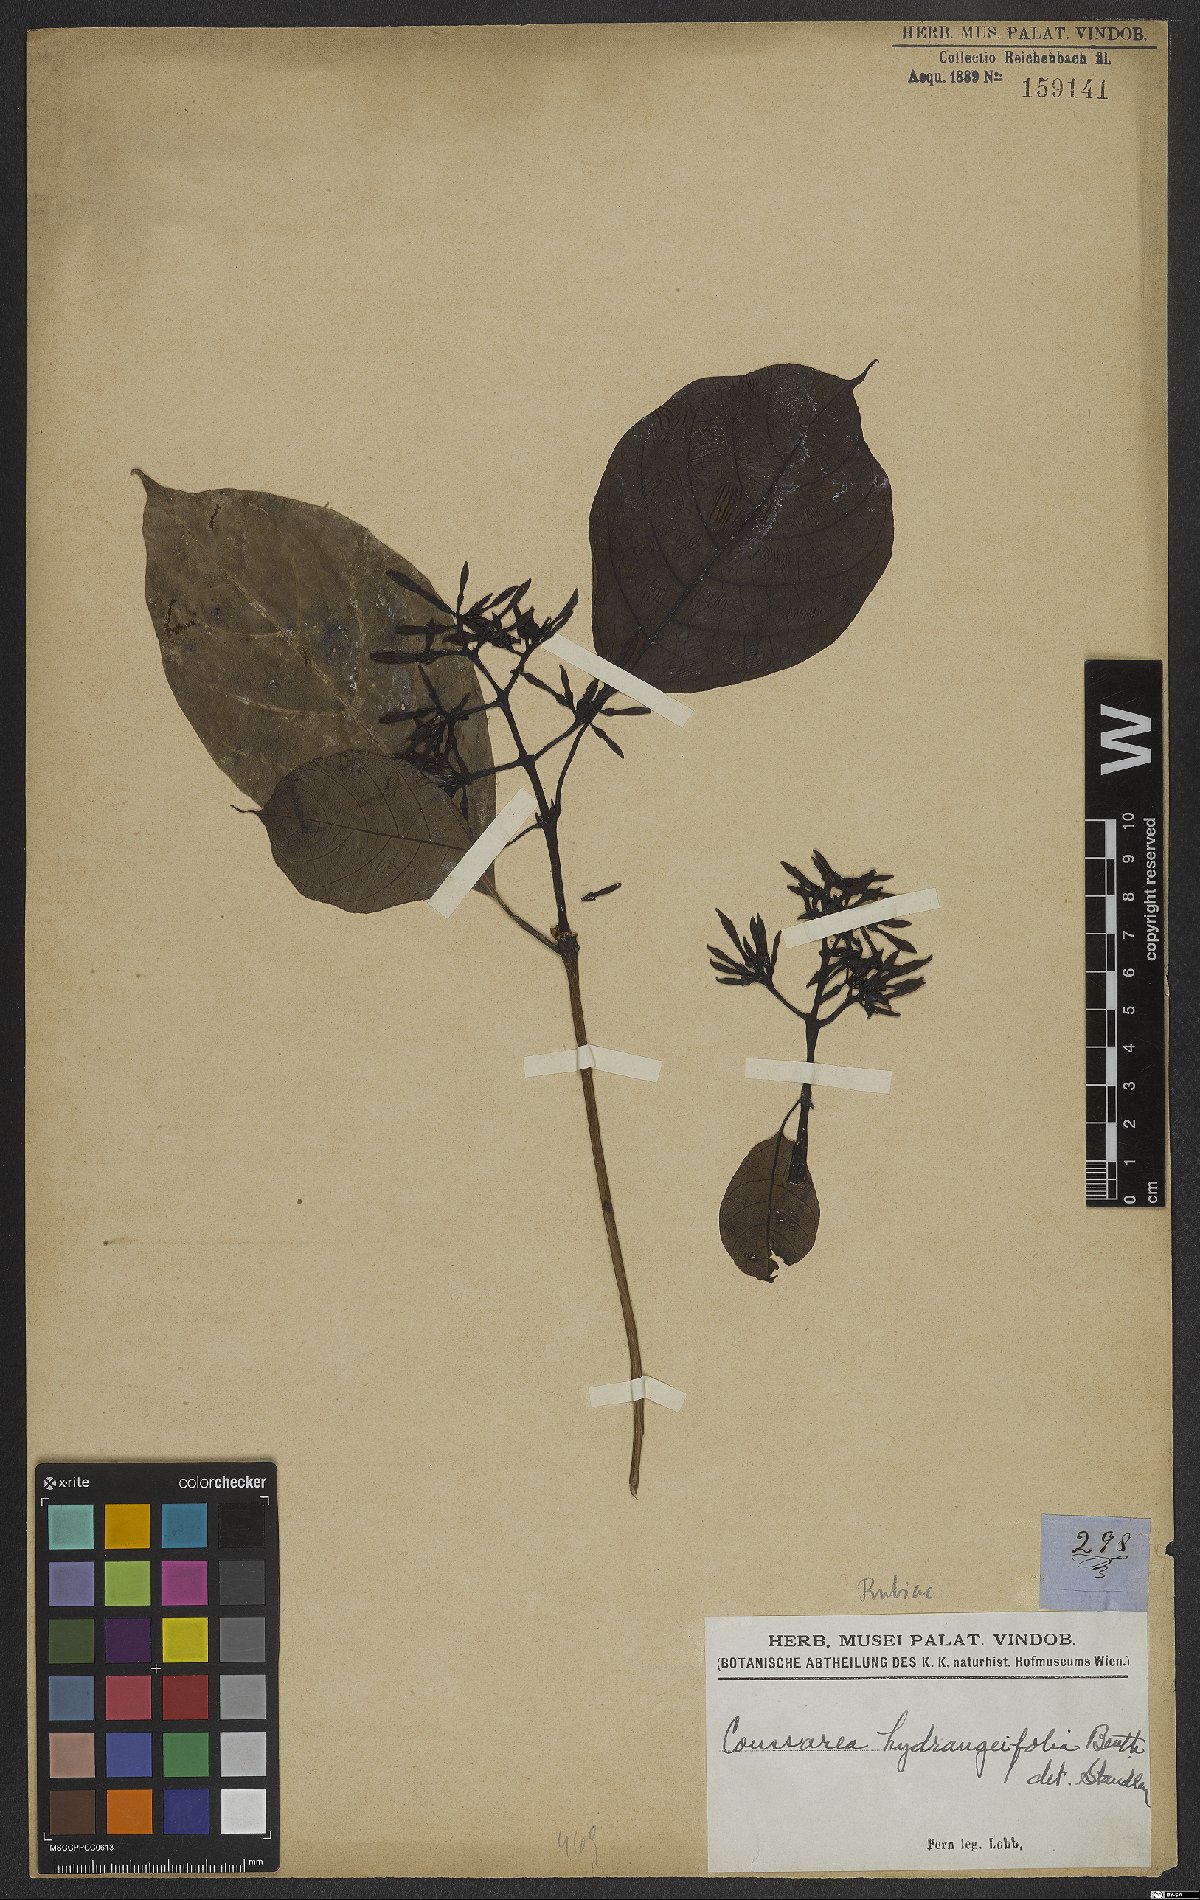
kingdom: Plantae
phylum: Tracheophyta
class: Magnoliopsida
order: Gentianales
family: Rubiaceae
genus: Coussarea
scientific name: Coussarea hydrangeifolia
